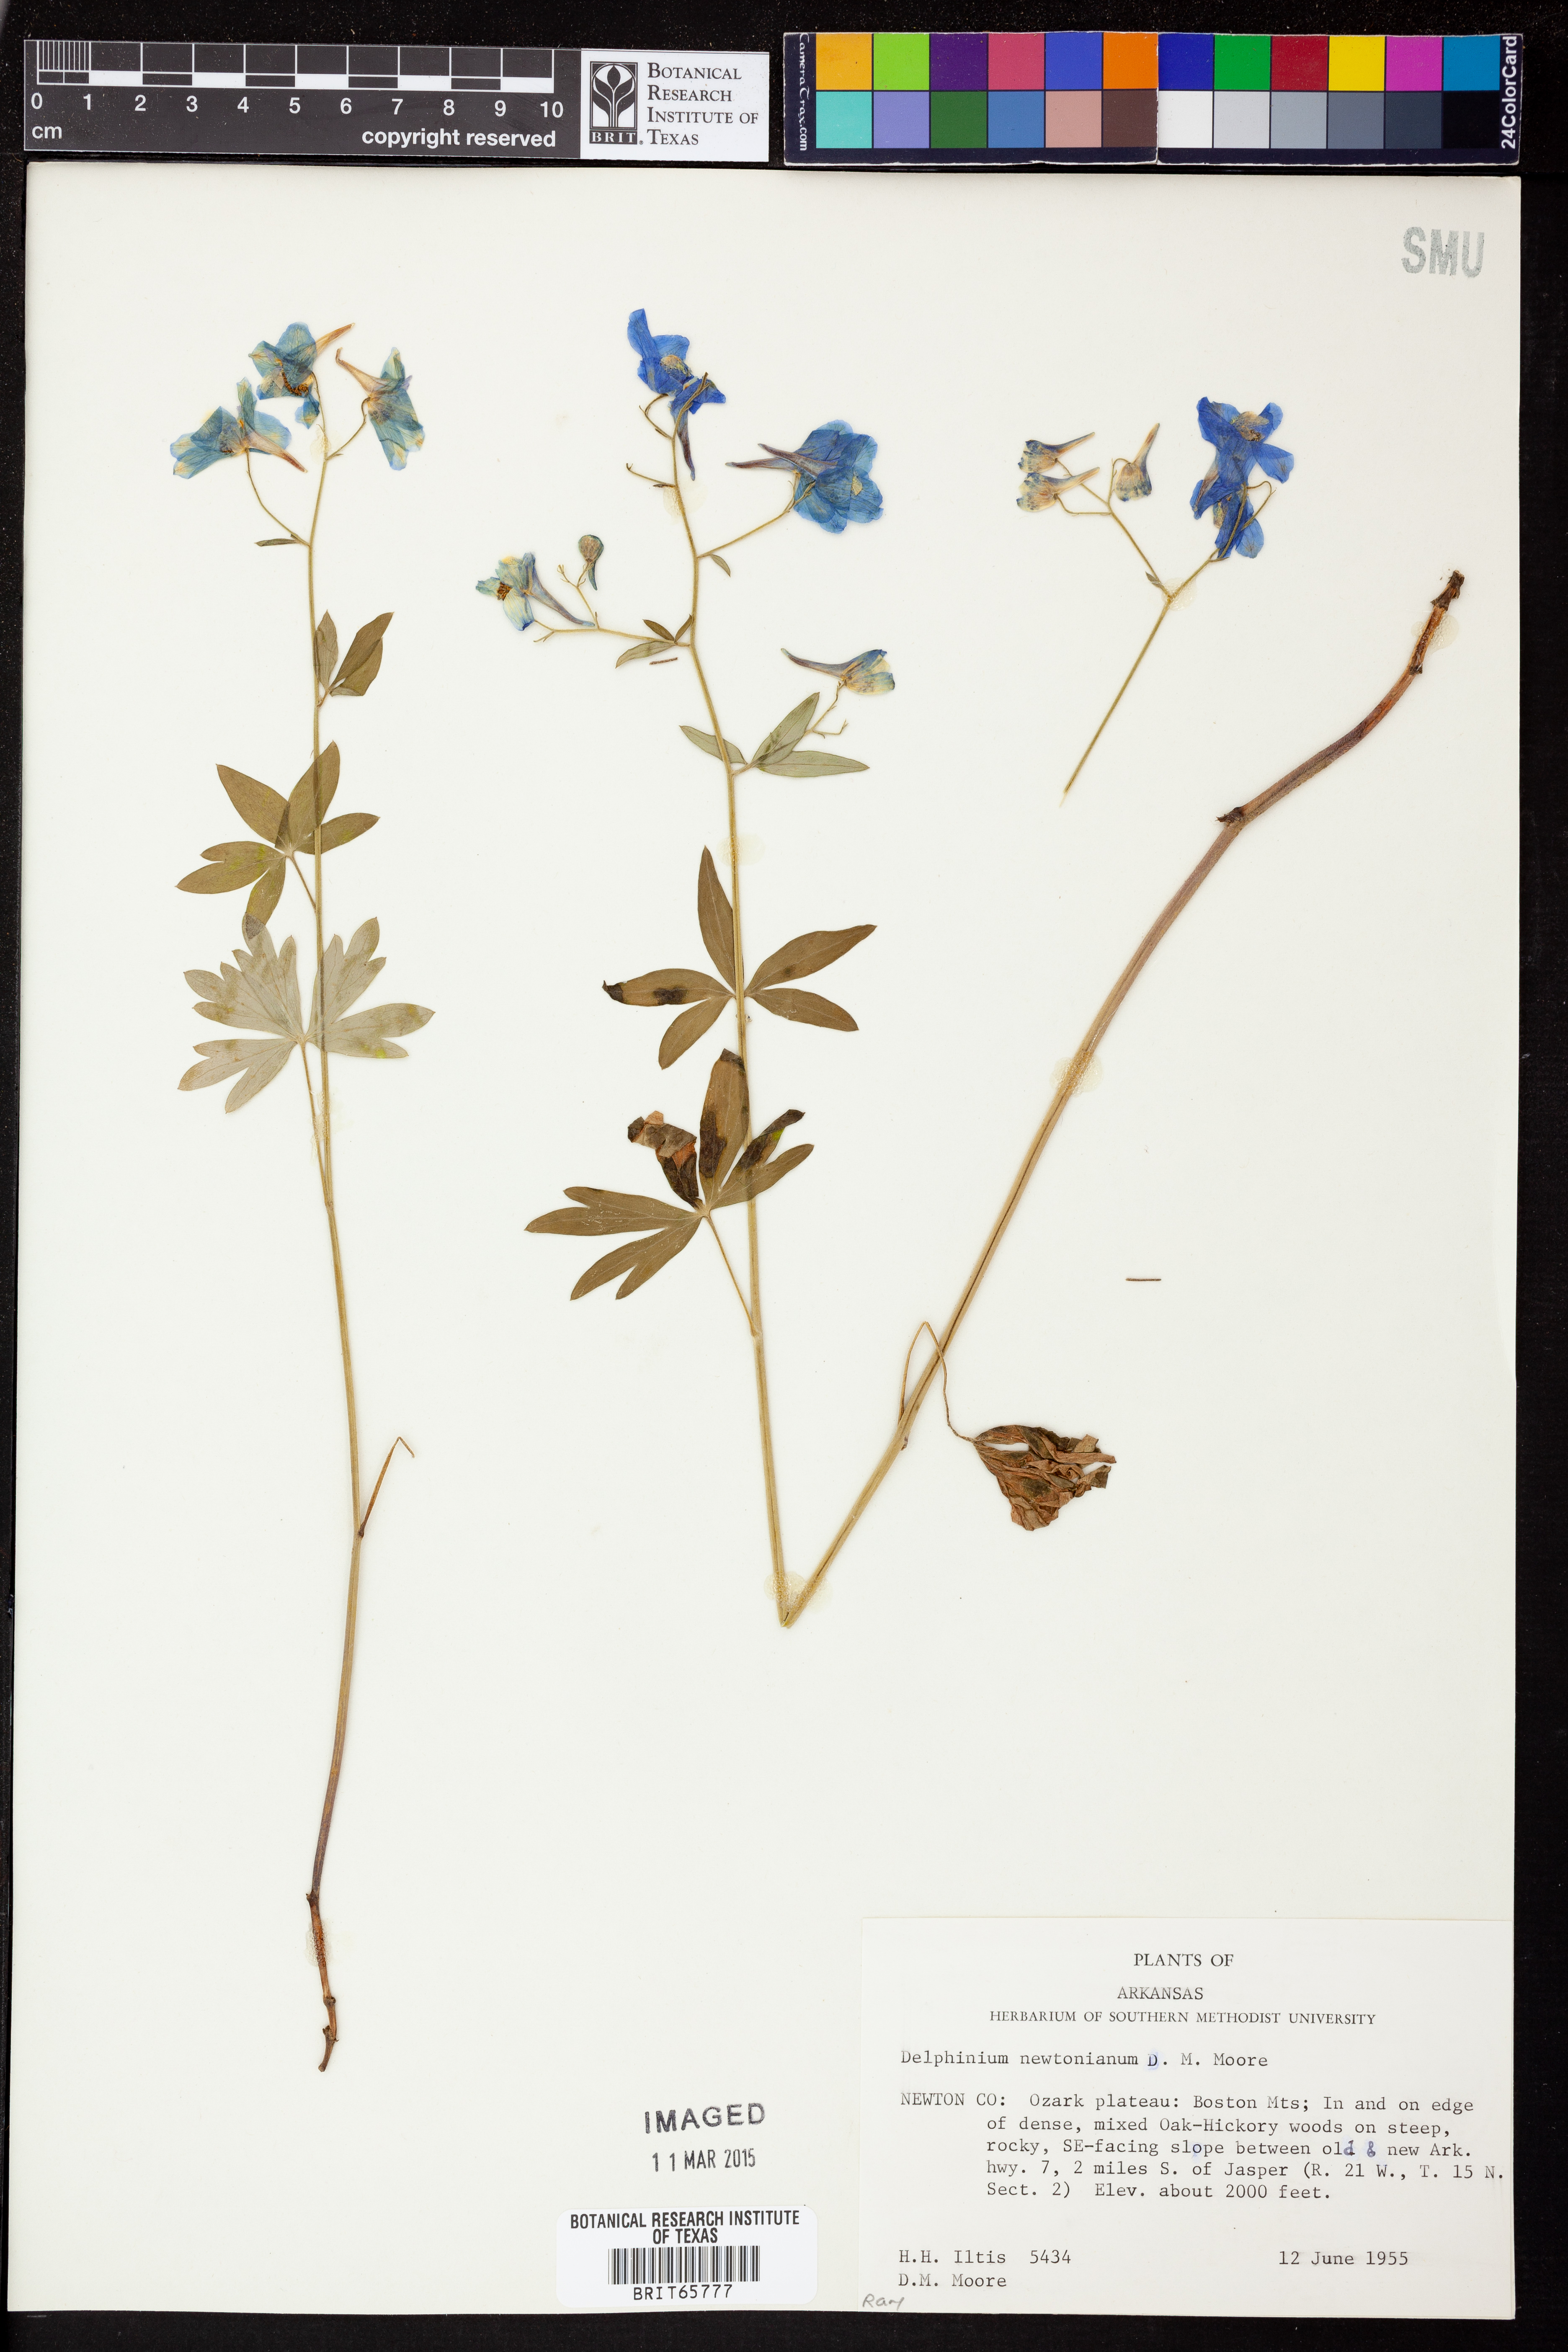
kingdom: Plantae
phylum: Tracheophyta
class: Magnoliopsida
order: Ranunculales
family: Ranunculaceae
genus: Delphinium
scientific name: Delphinium newtonianum
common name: Ozark larkspur
